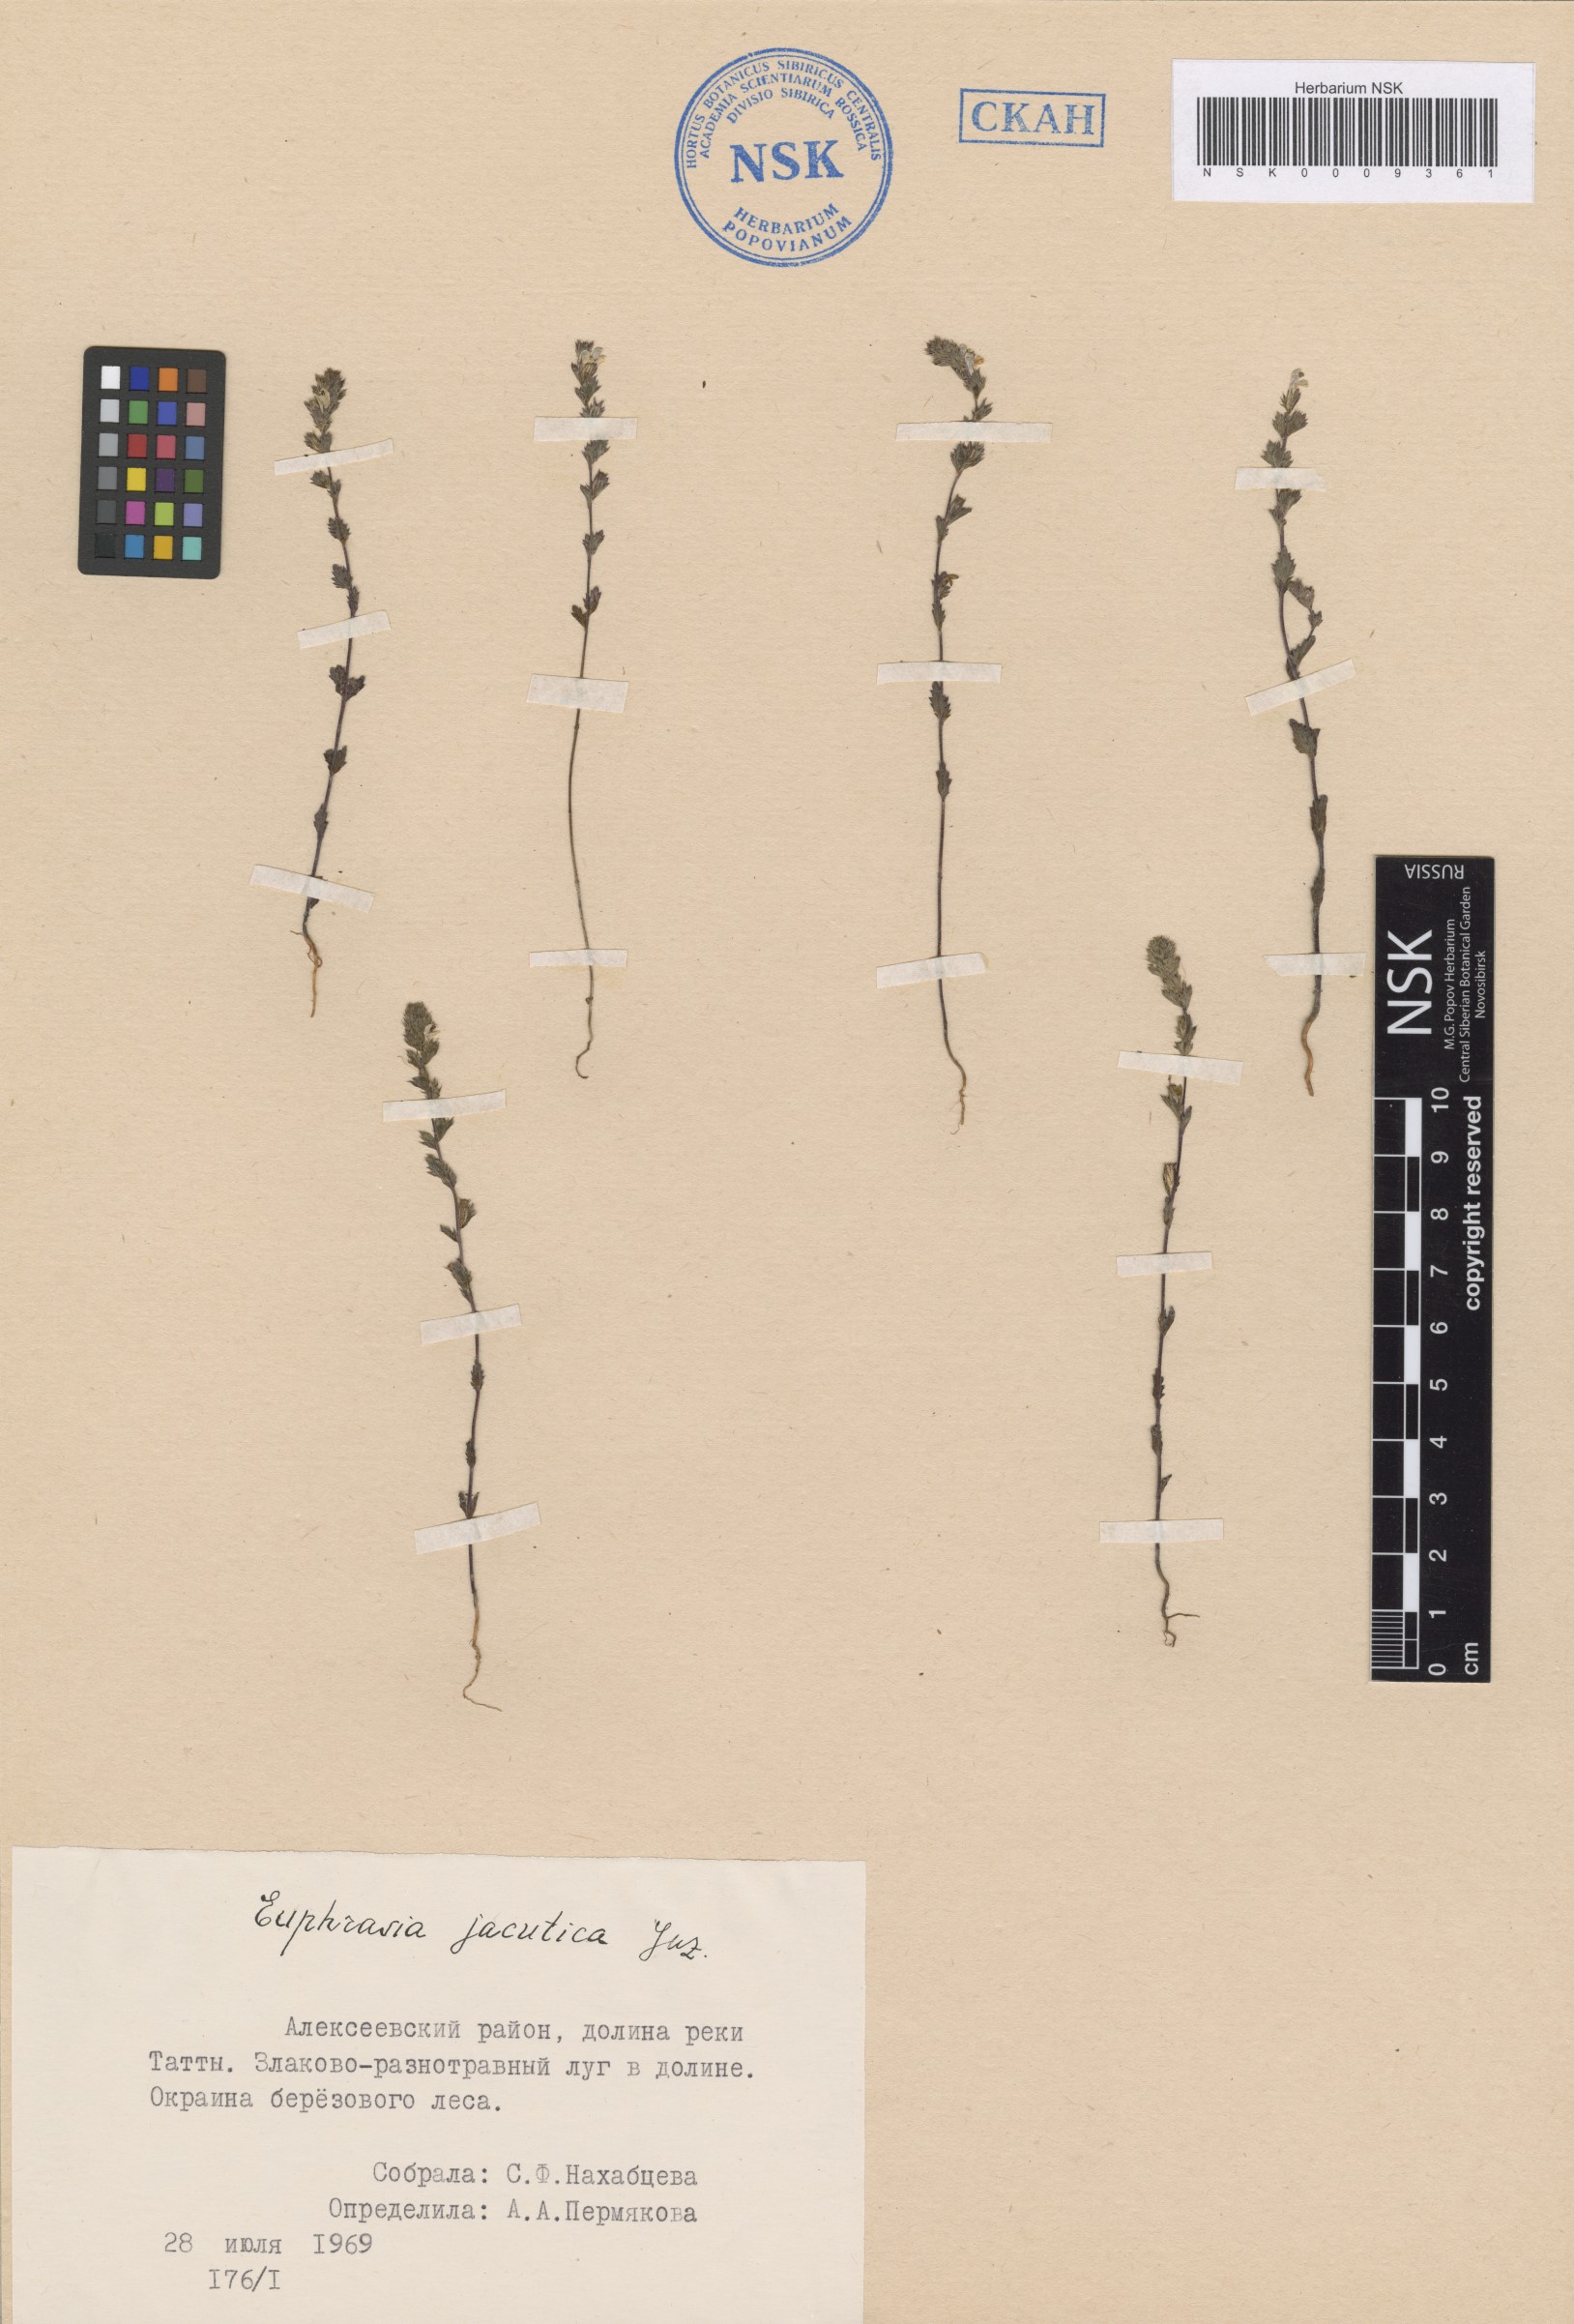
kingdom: Plantae
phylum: Tracheophyta
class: Magnoliopsida
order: Lamiales
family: Orobanchaceae
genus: Euphrasia
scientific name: Euphrasia jacutica
